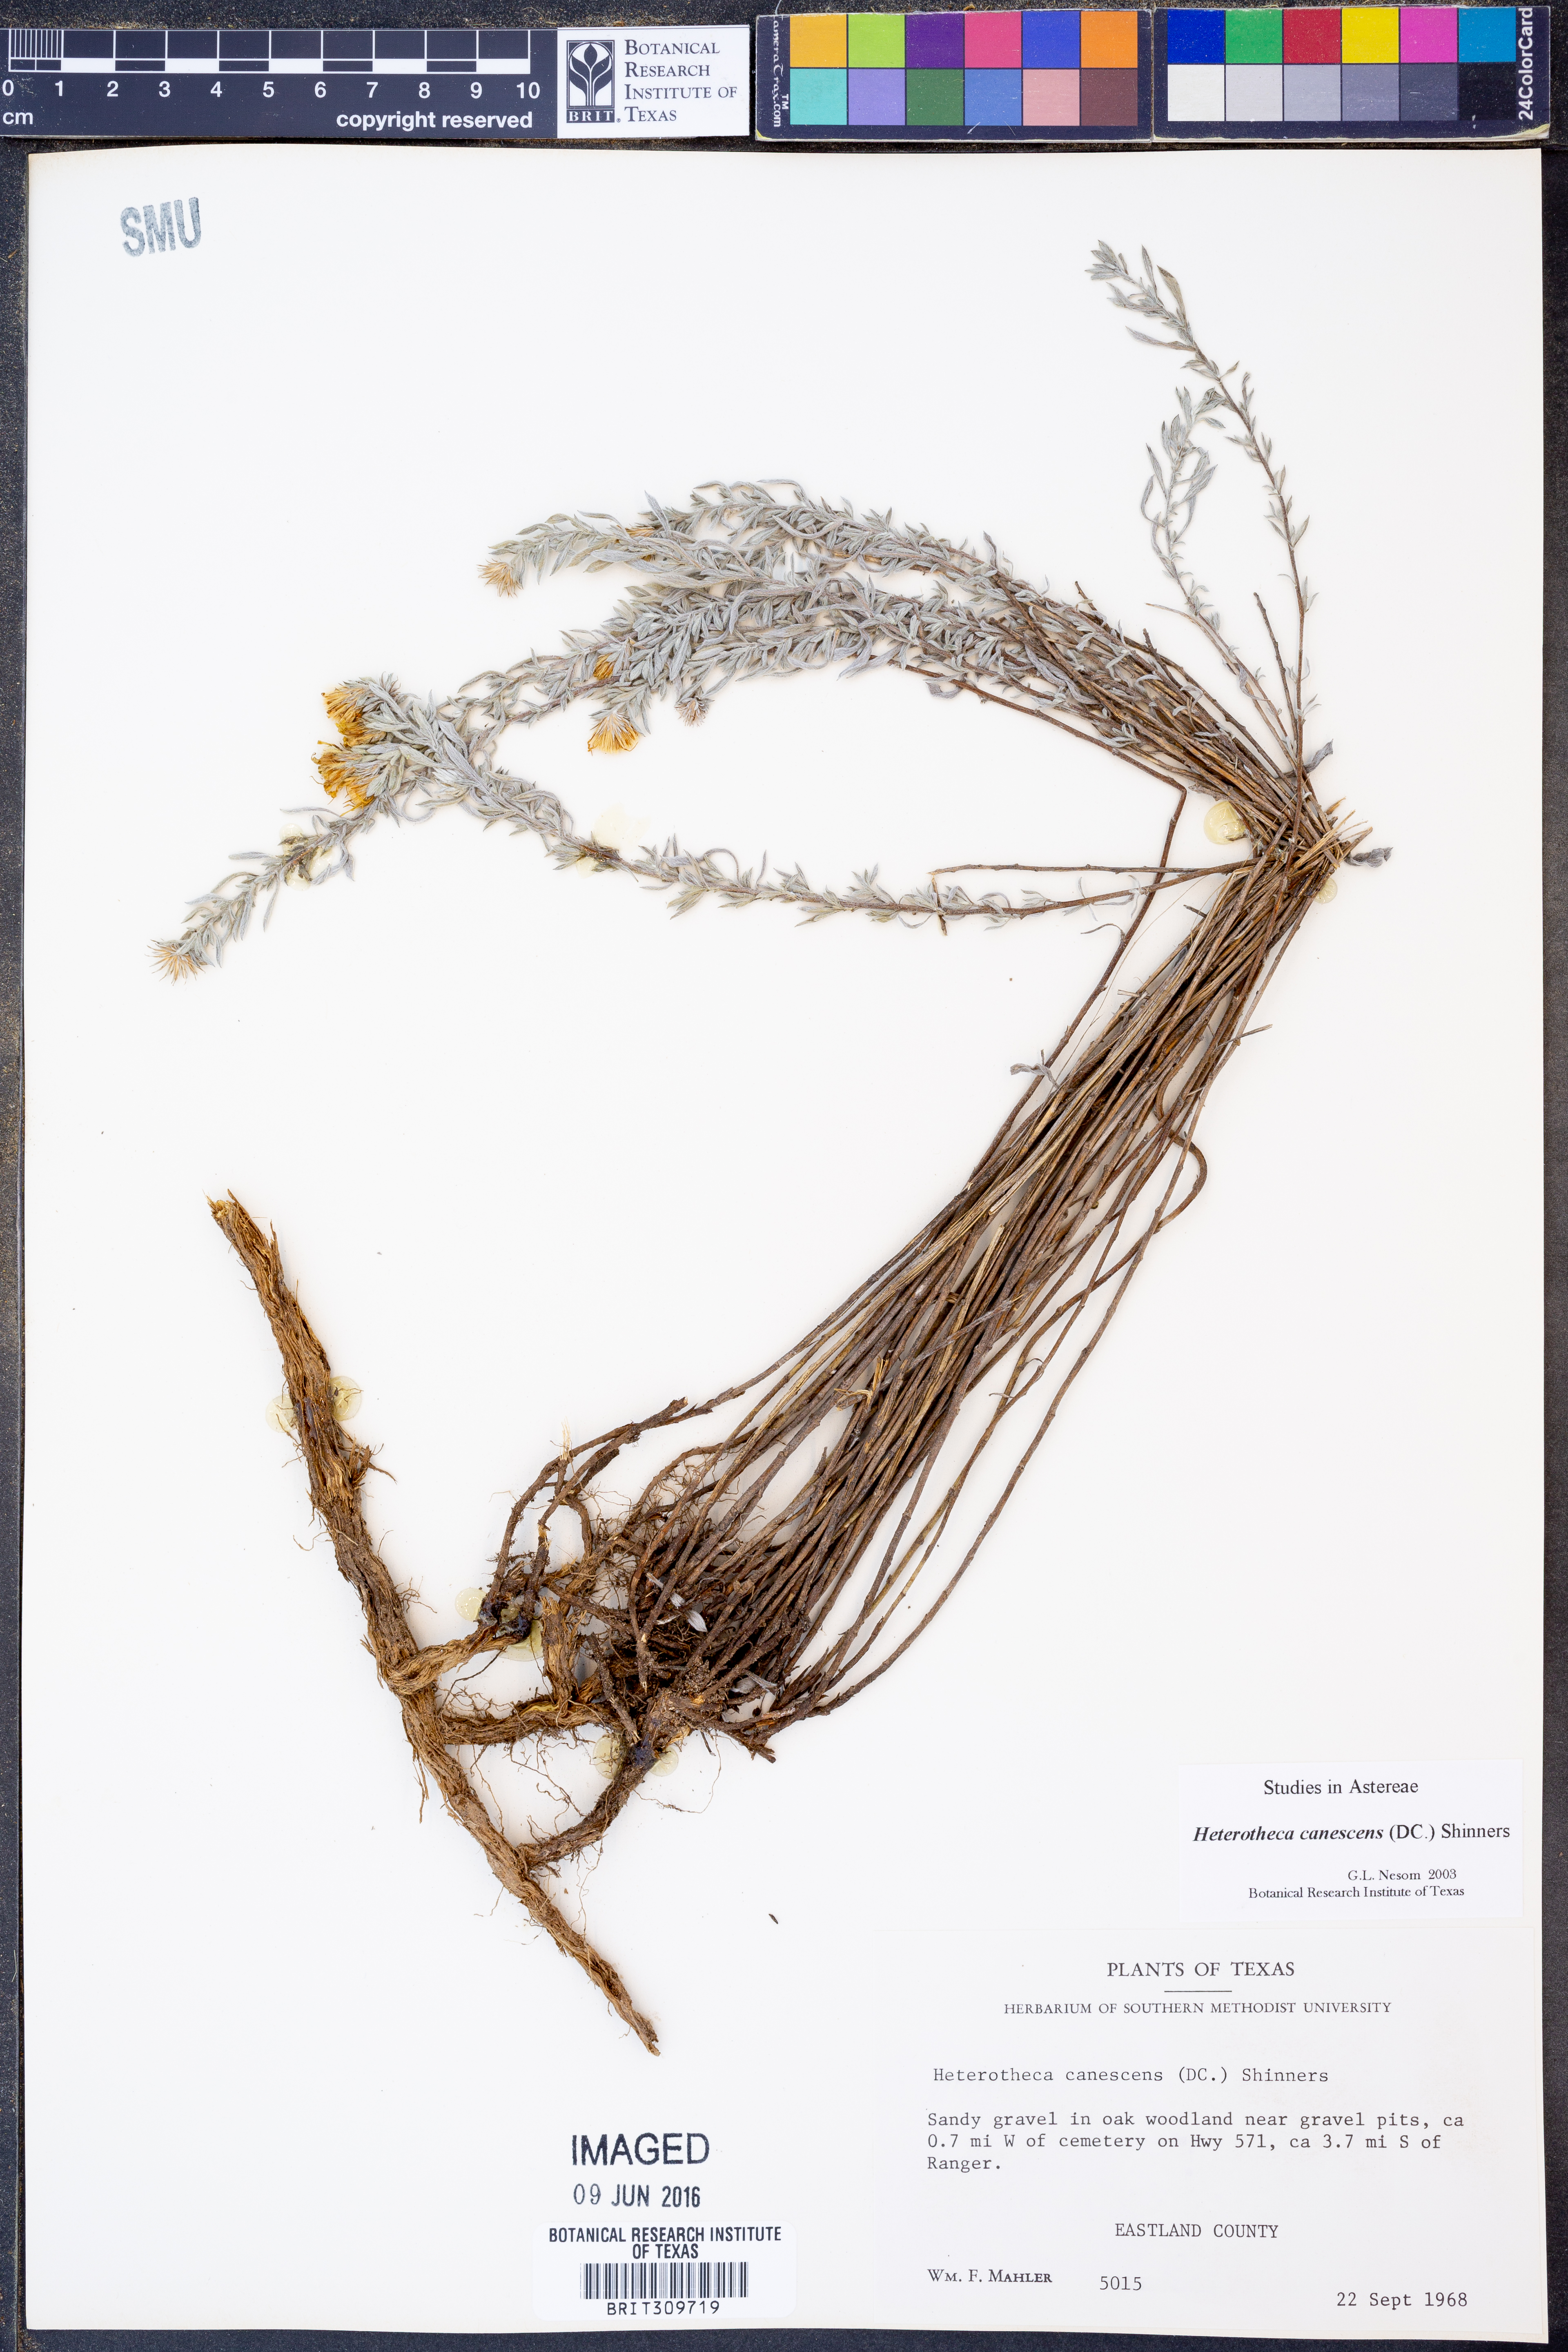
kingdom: Plantae
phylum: Tracheophyta
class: Magnoliopsida
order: Asterales
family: Asteraceae
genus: Heterotheca
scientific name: Heterotheca canescens
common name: Hoary golden-aster
